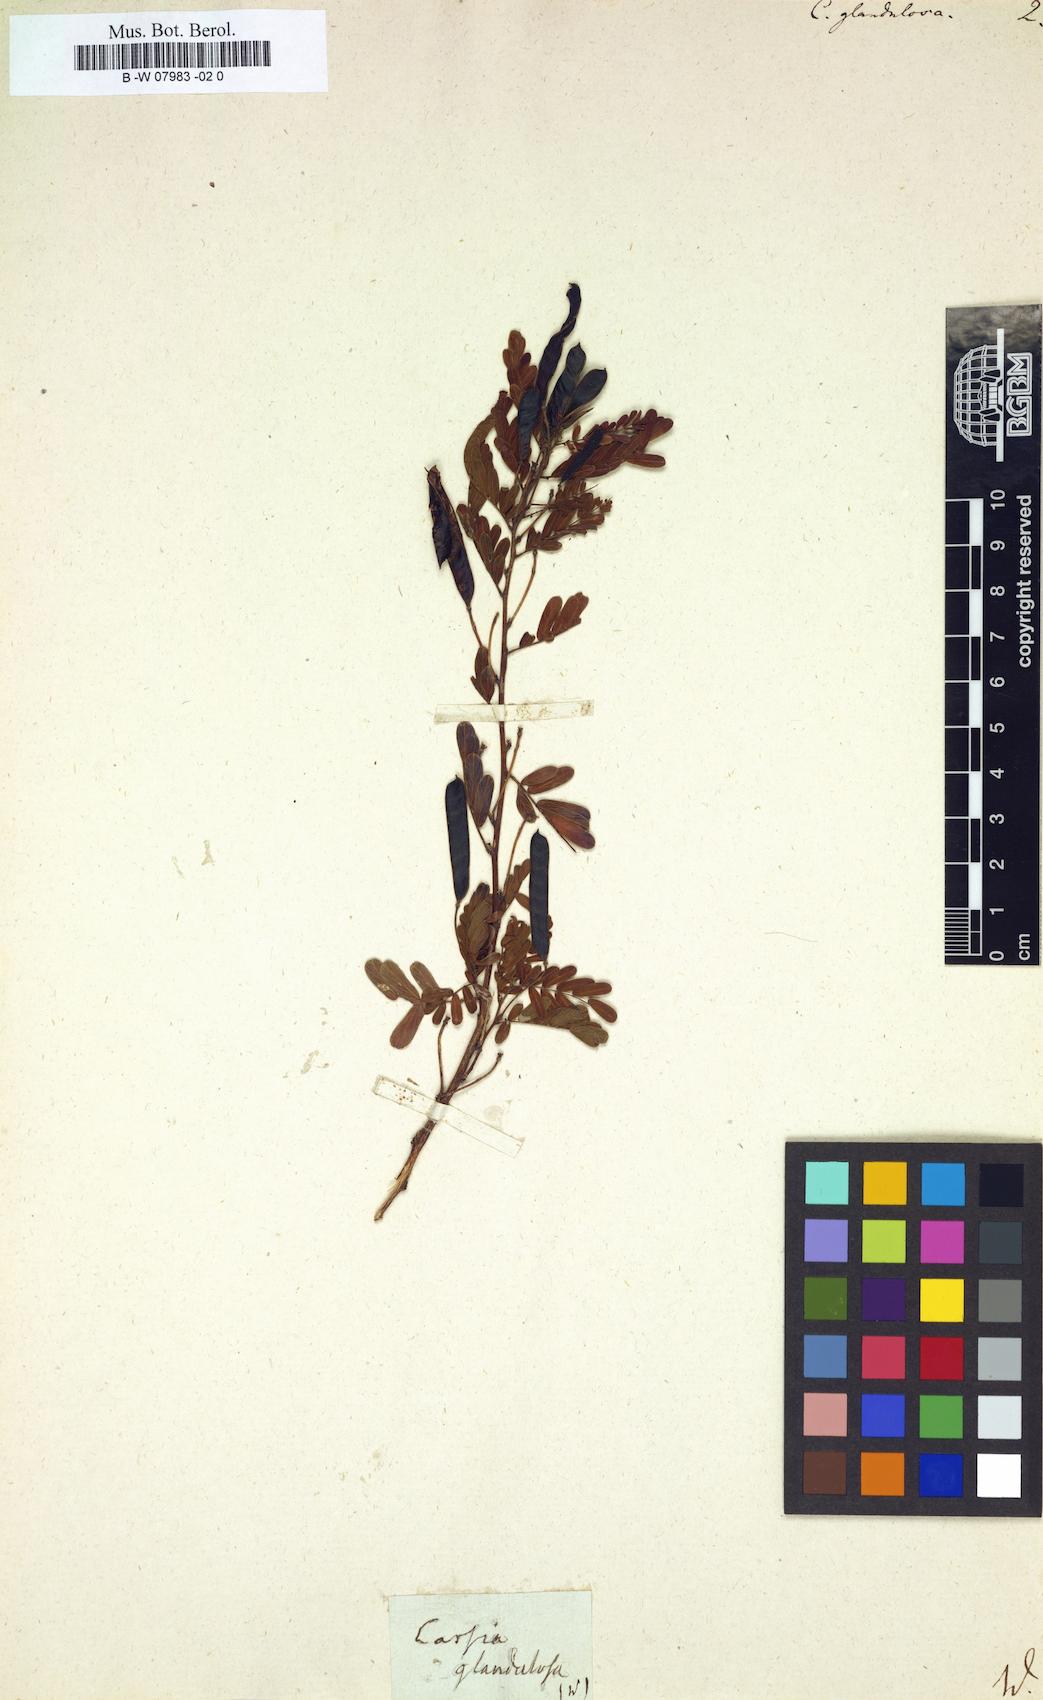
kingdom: Plantae
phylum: Tracheophyta
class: Magnoliopsida
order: Fabales
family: Fabaceae
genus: Chamaecrista
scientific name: Chamaecrista glandulosa
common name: Wild peas
